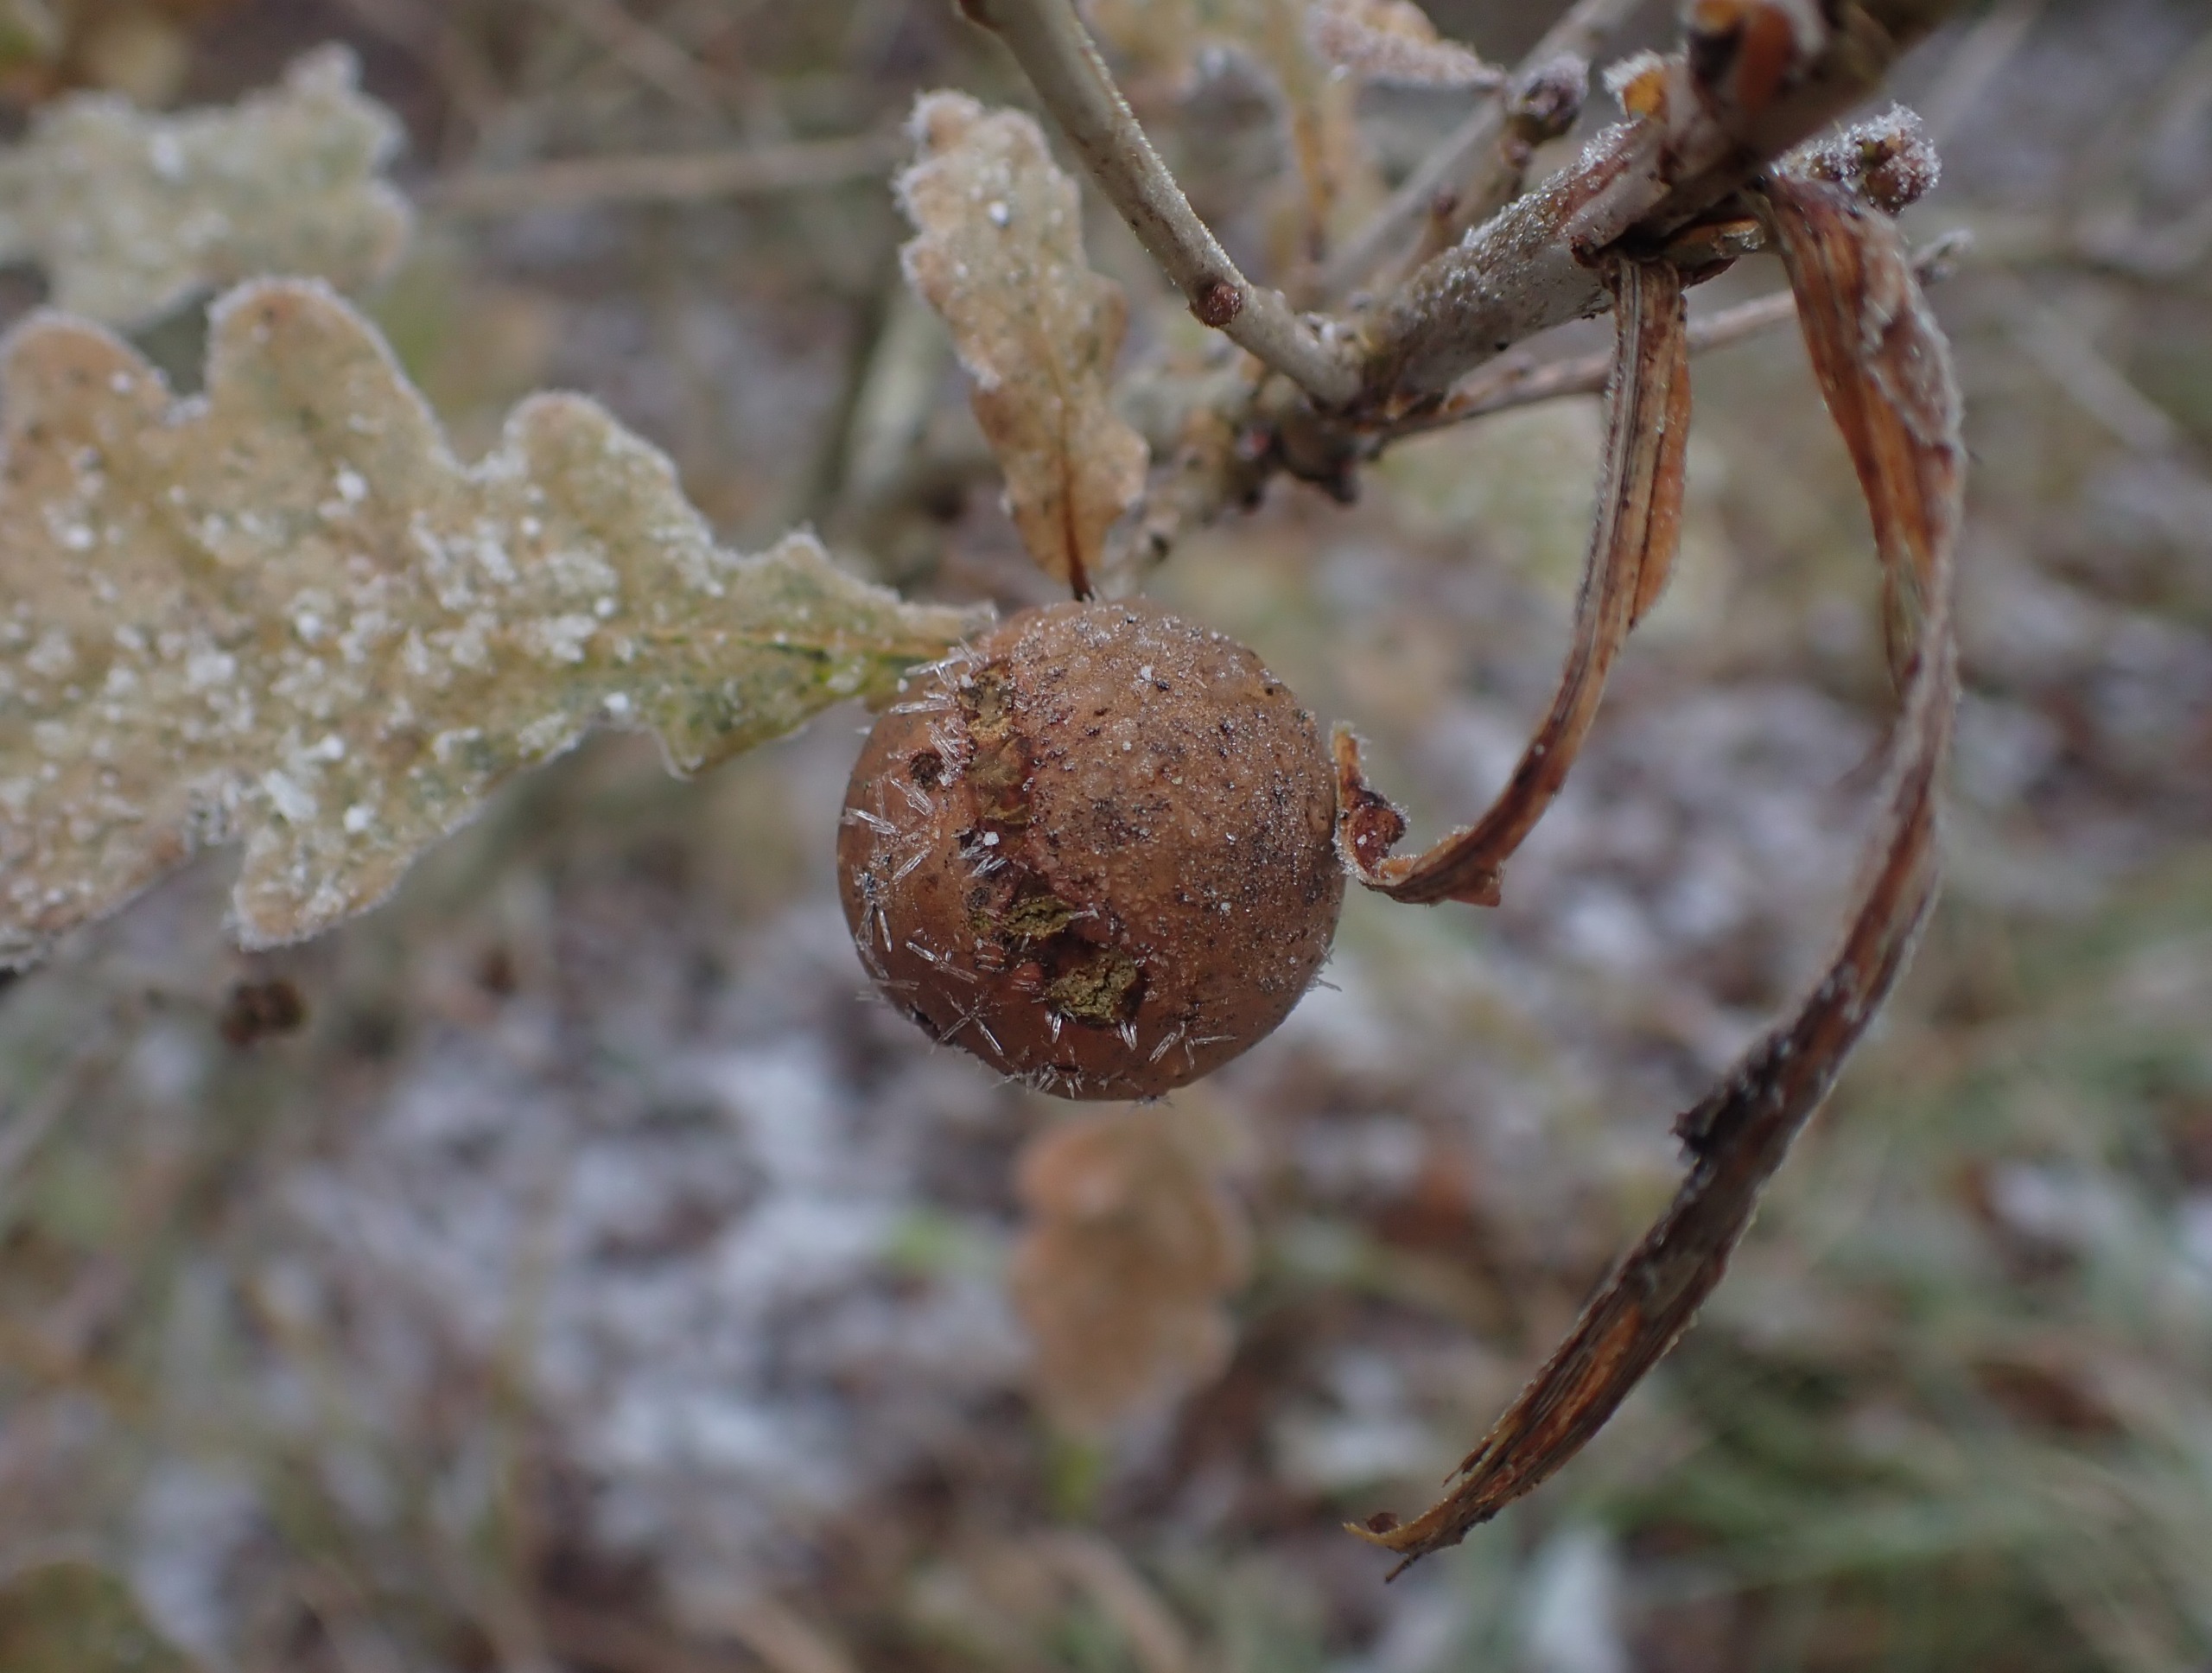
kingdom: Animalia
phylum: Arthropoda
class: Insecta
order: Hymenoptera
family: Cynipidae
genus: Andricus
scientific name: Andricus kollari
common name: Marmorkugle-galhveps
